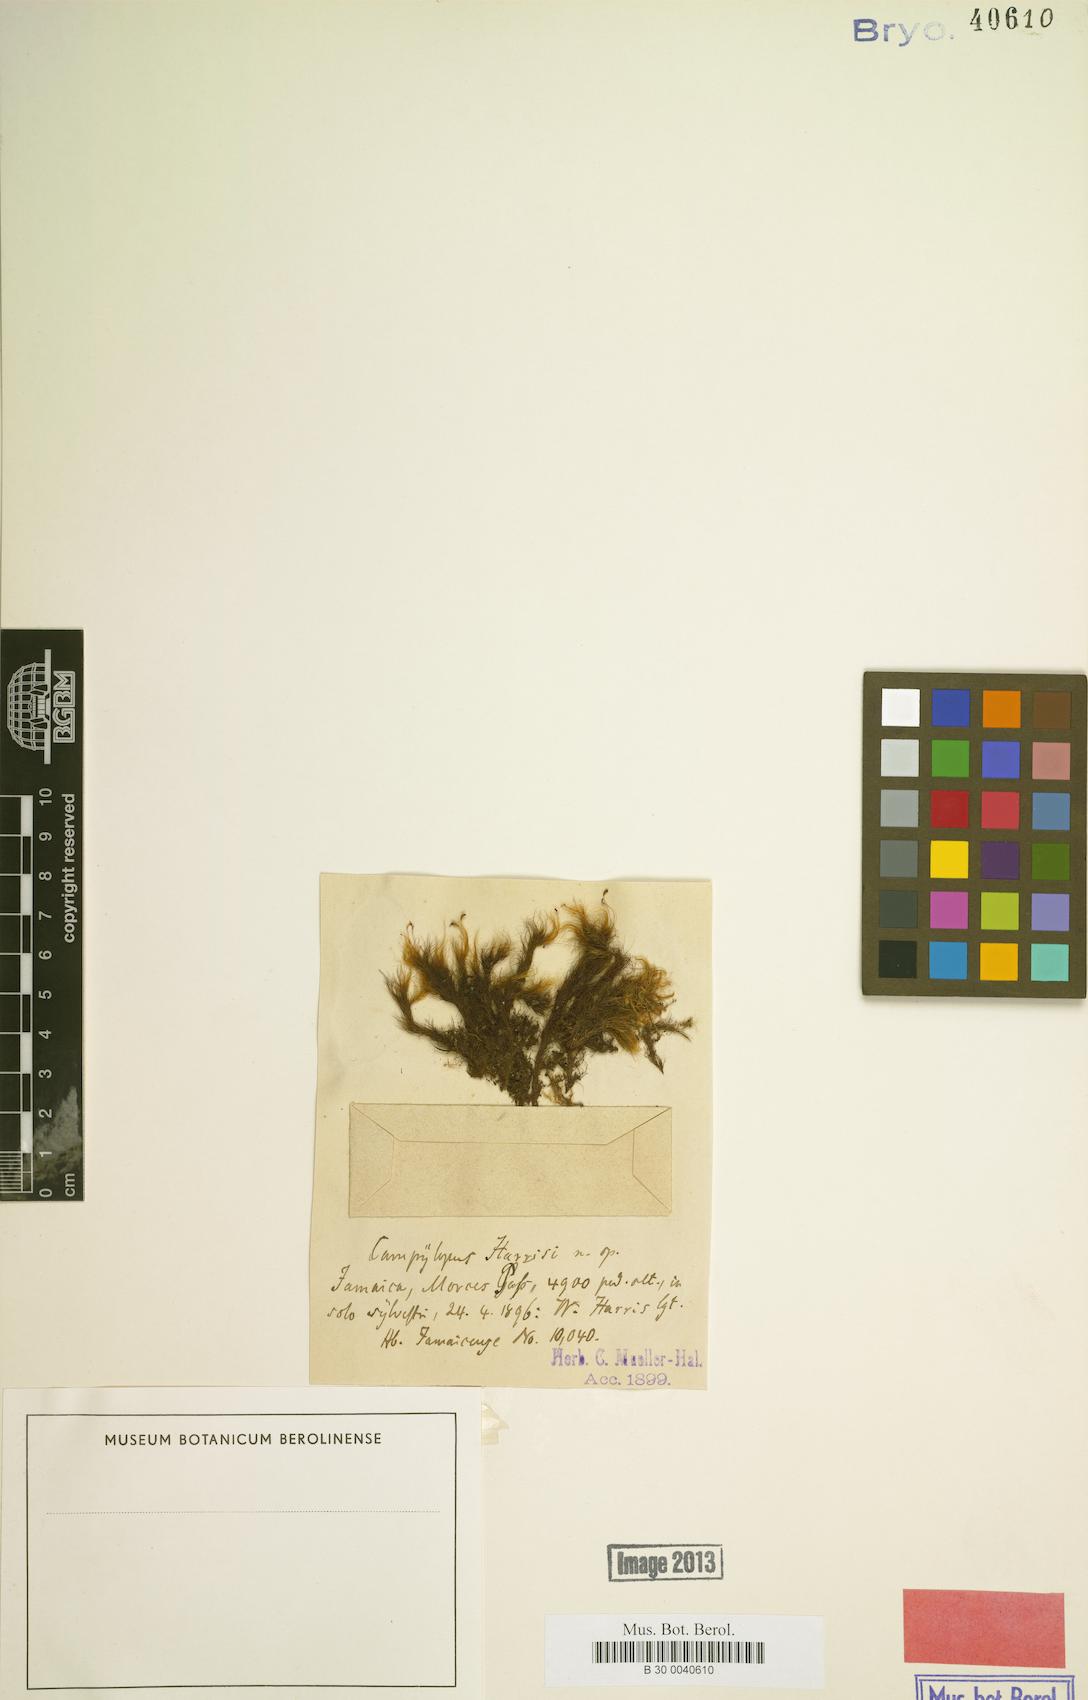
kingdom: Plantae
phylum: Bryophyta
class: Bryopsida
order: Dicranales
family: Leucobryaceae
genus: Campylopus
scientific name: Campylopus cubensis
